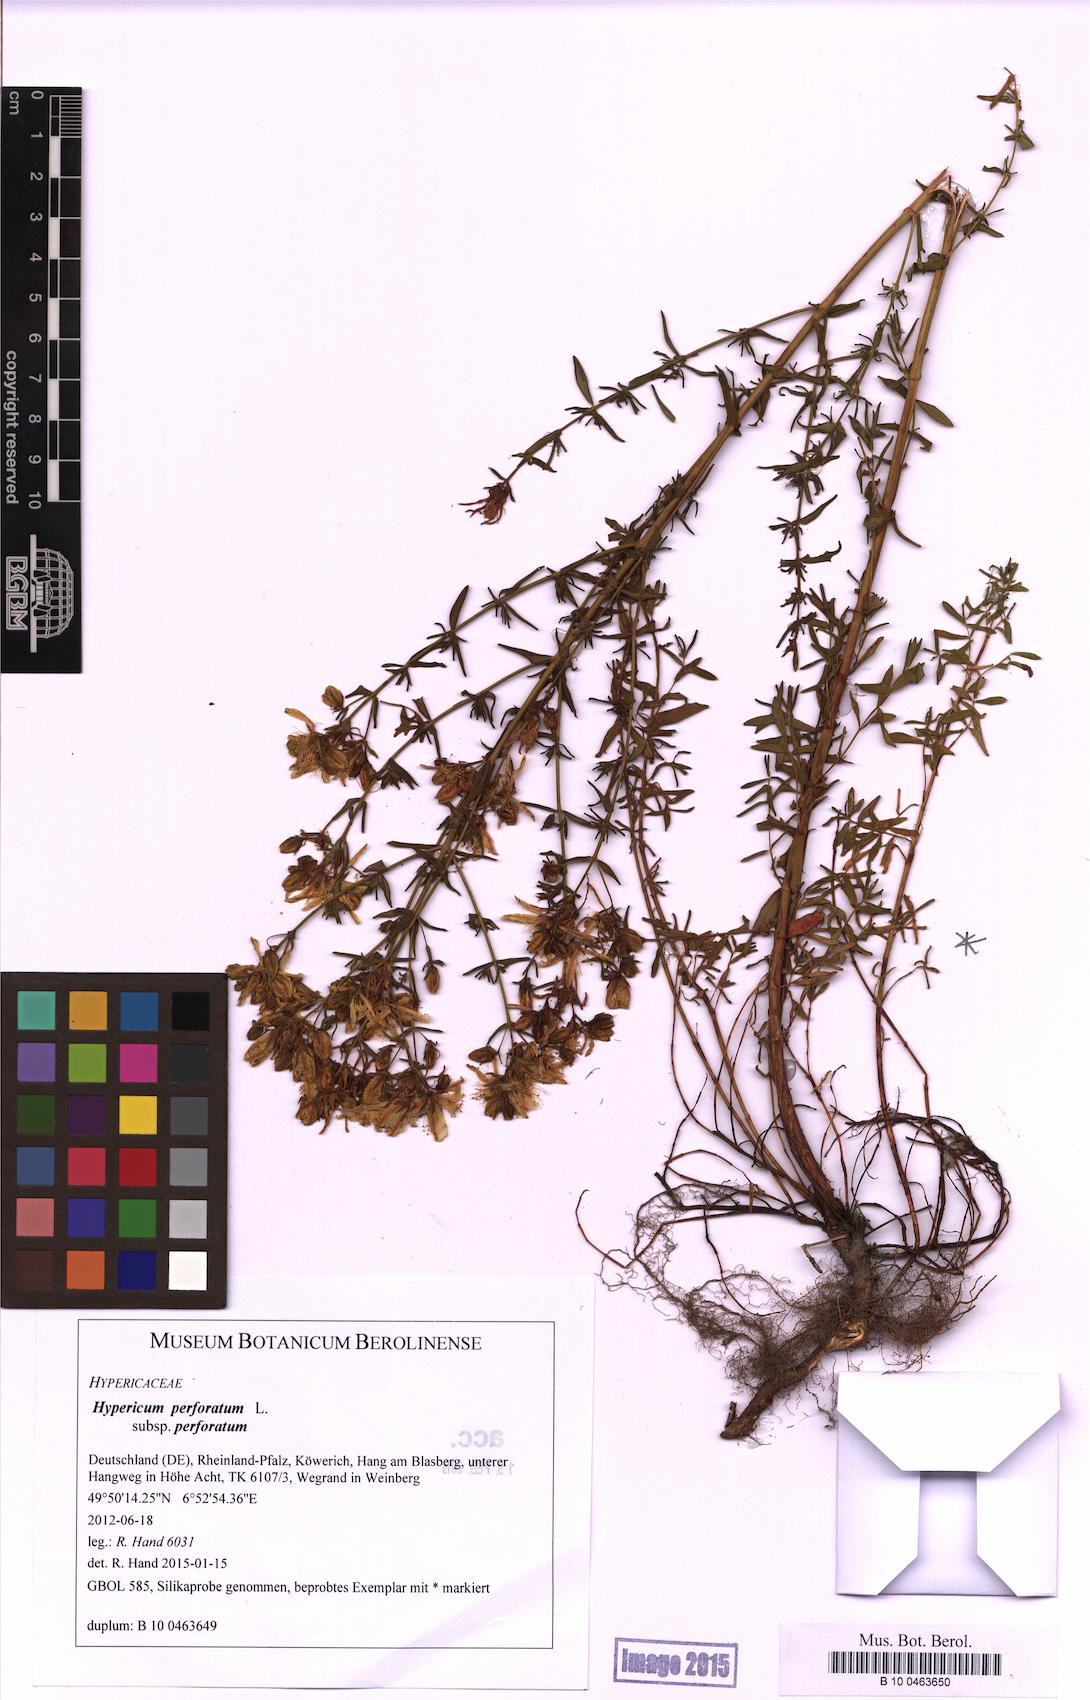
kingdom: Plantae
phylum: Tracheophyta
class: Magnoliopsida
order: Malpighiales
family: Hypericaceae
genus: Hypericum
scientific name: Hypericum perforatum
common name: Common st. johnswort
